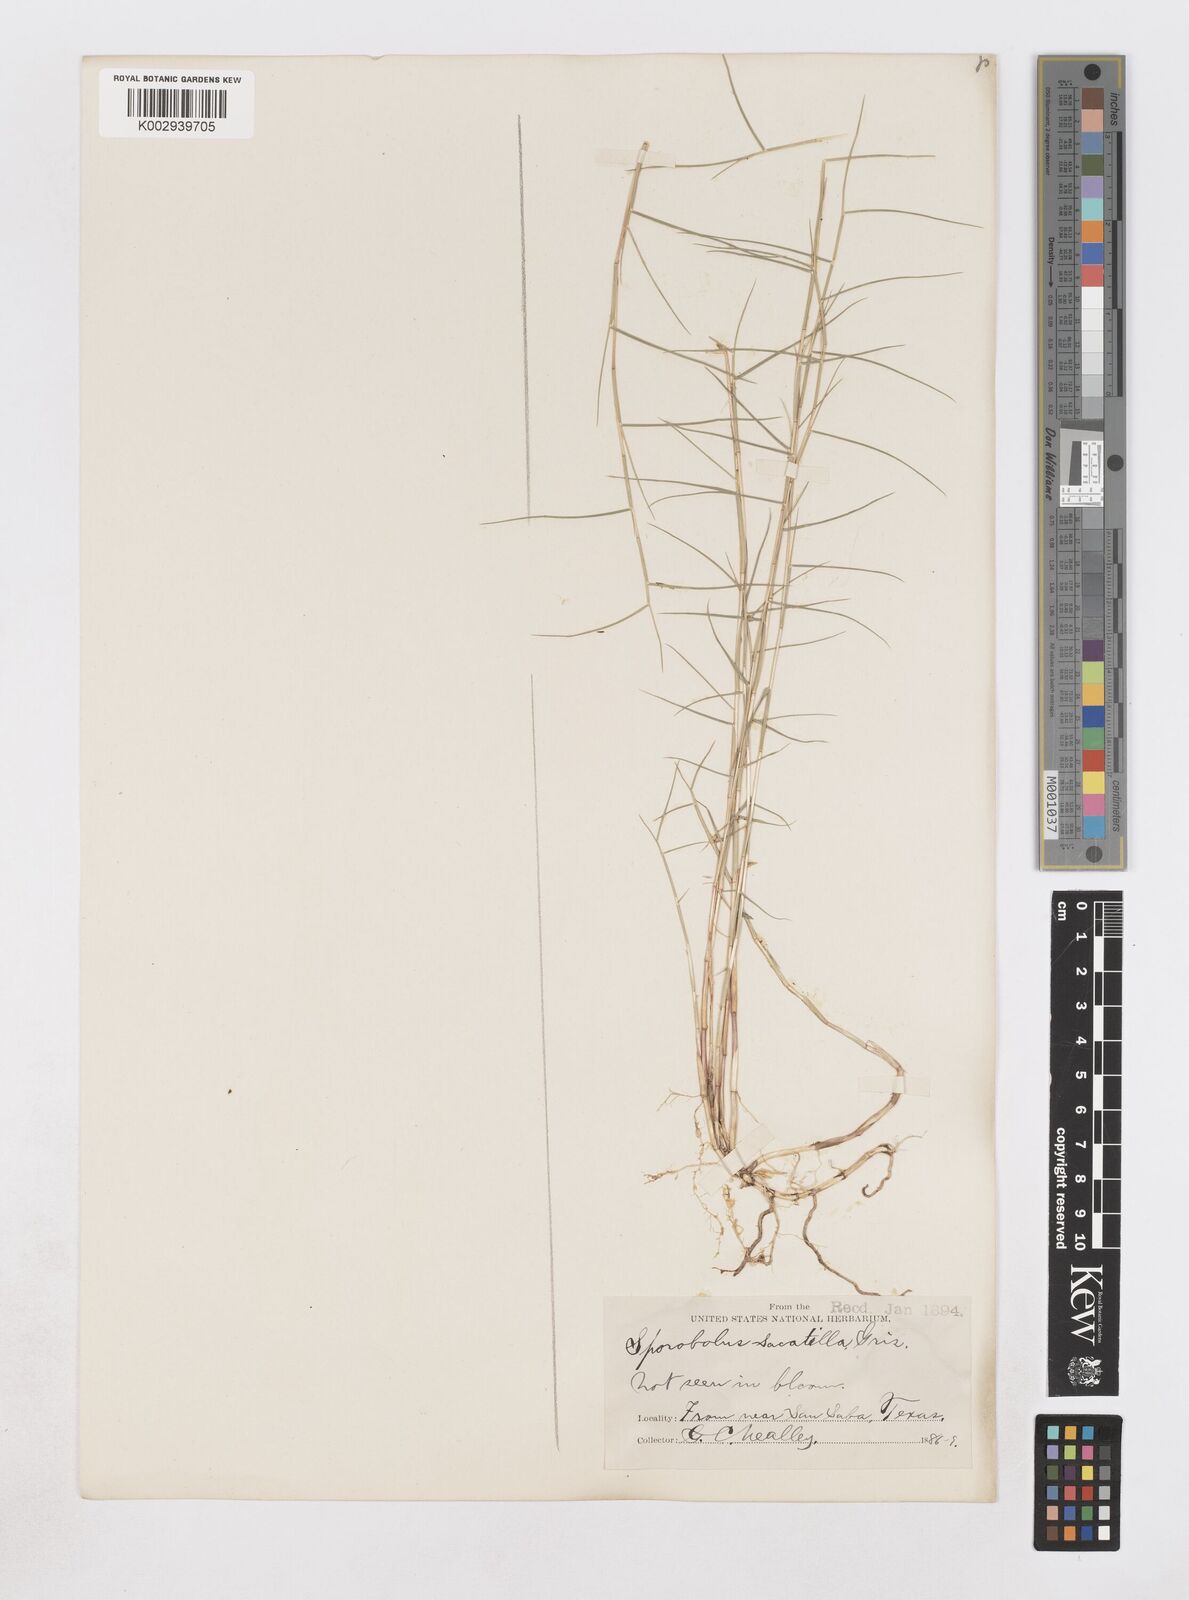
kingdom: Plantae
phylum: Tracheophyta
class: Liliopsida
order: Poales
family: Poaceae
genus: Muhlenbergia
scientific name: Muhlenbergia utilis
